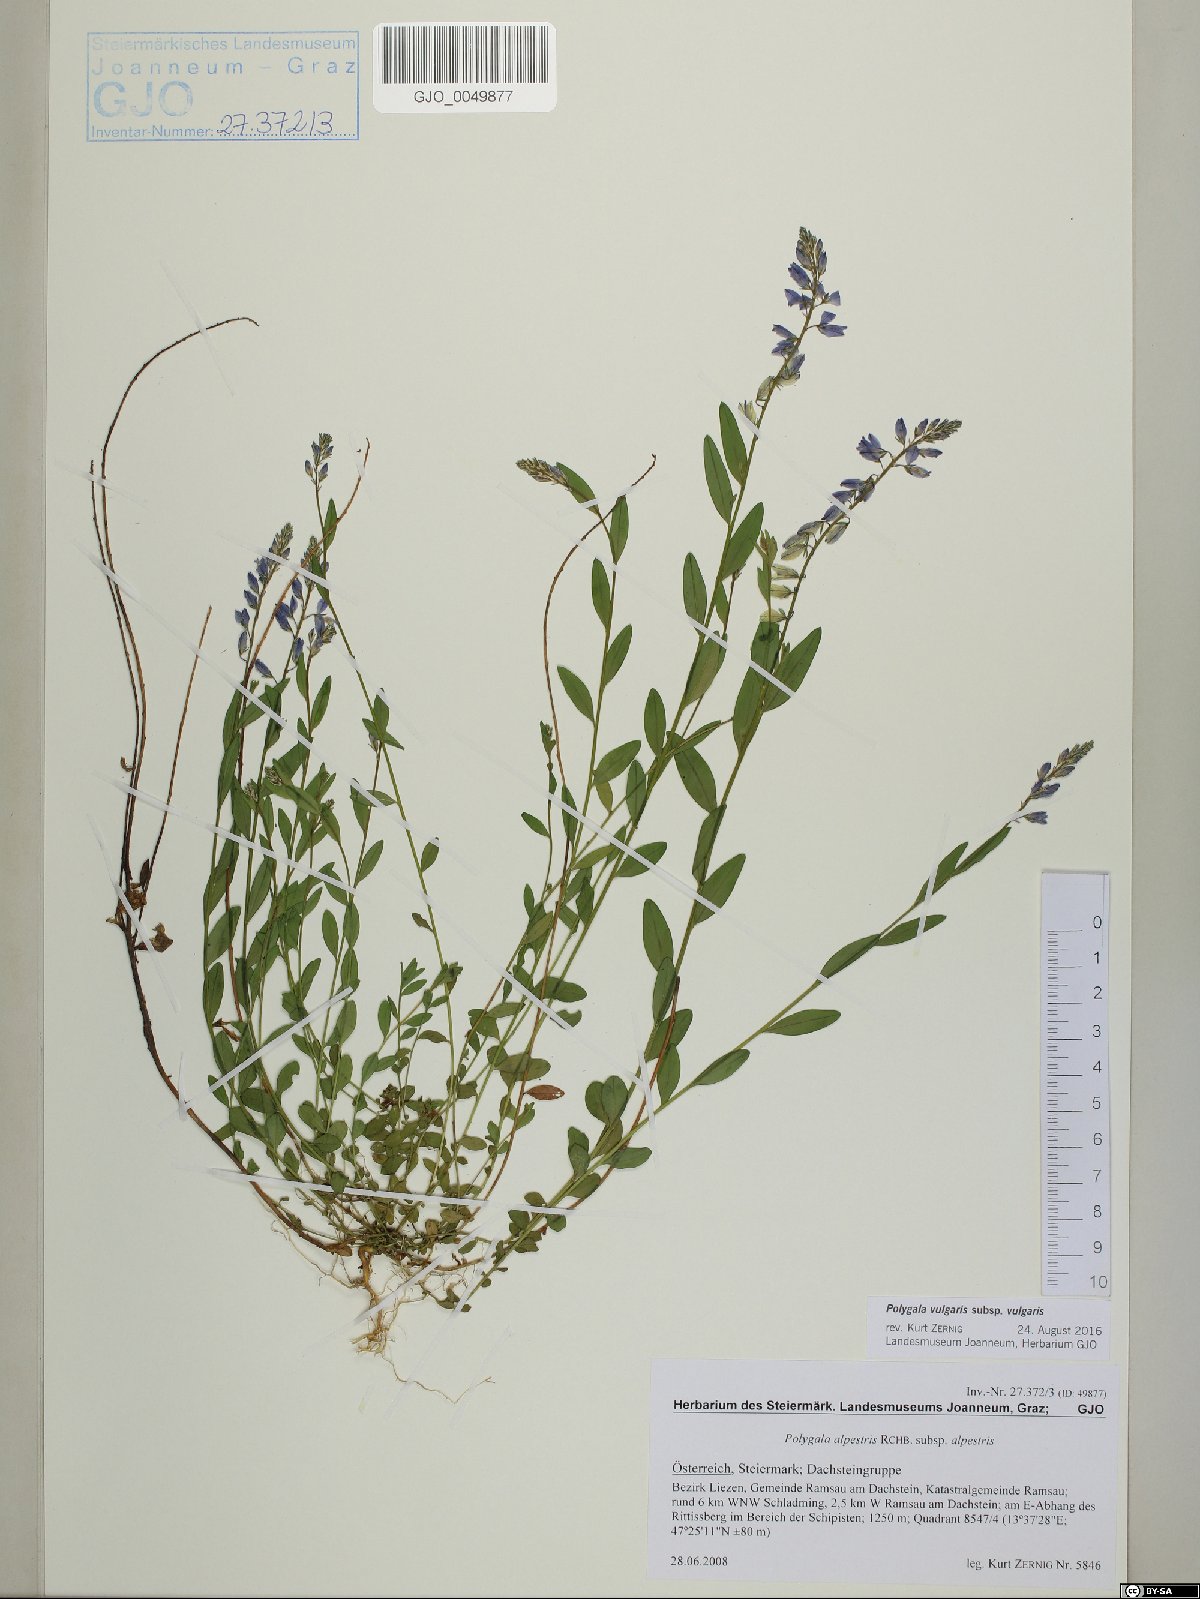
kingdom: Plantae
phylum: Tracheophyta
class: Magnoliopsida
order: Fabales
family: Polygalaceae
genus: Polygala
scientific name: Polygala vulgaris
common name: Common milkwort
